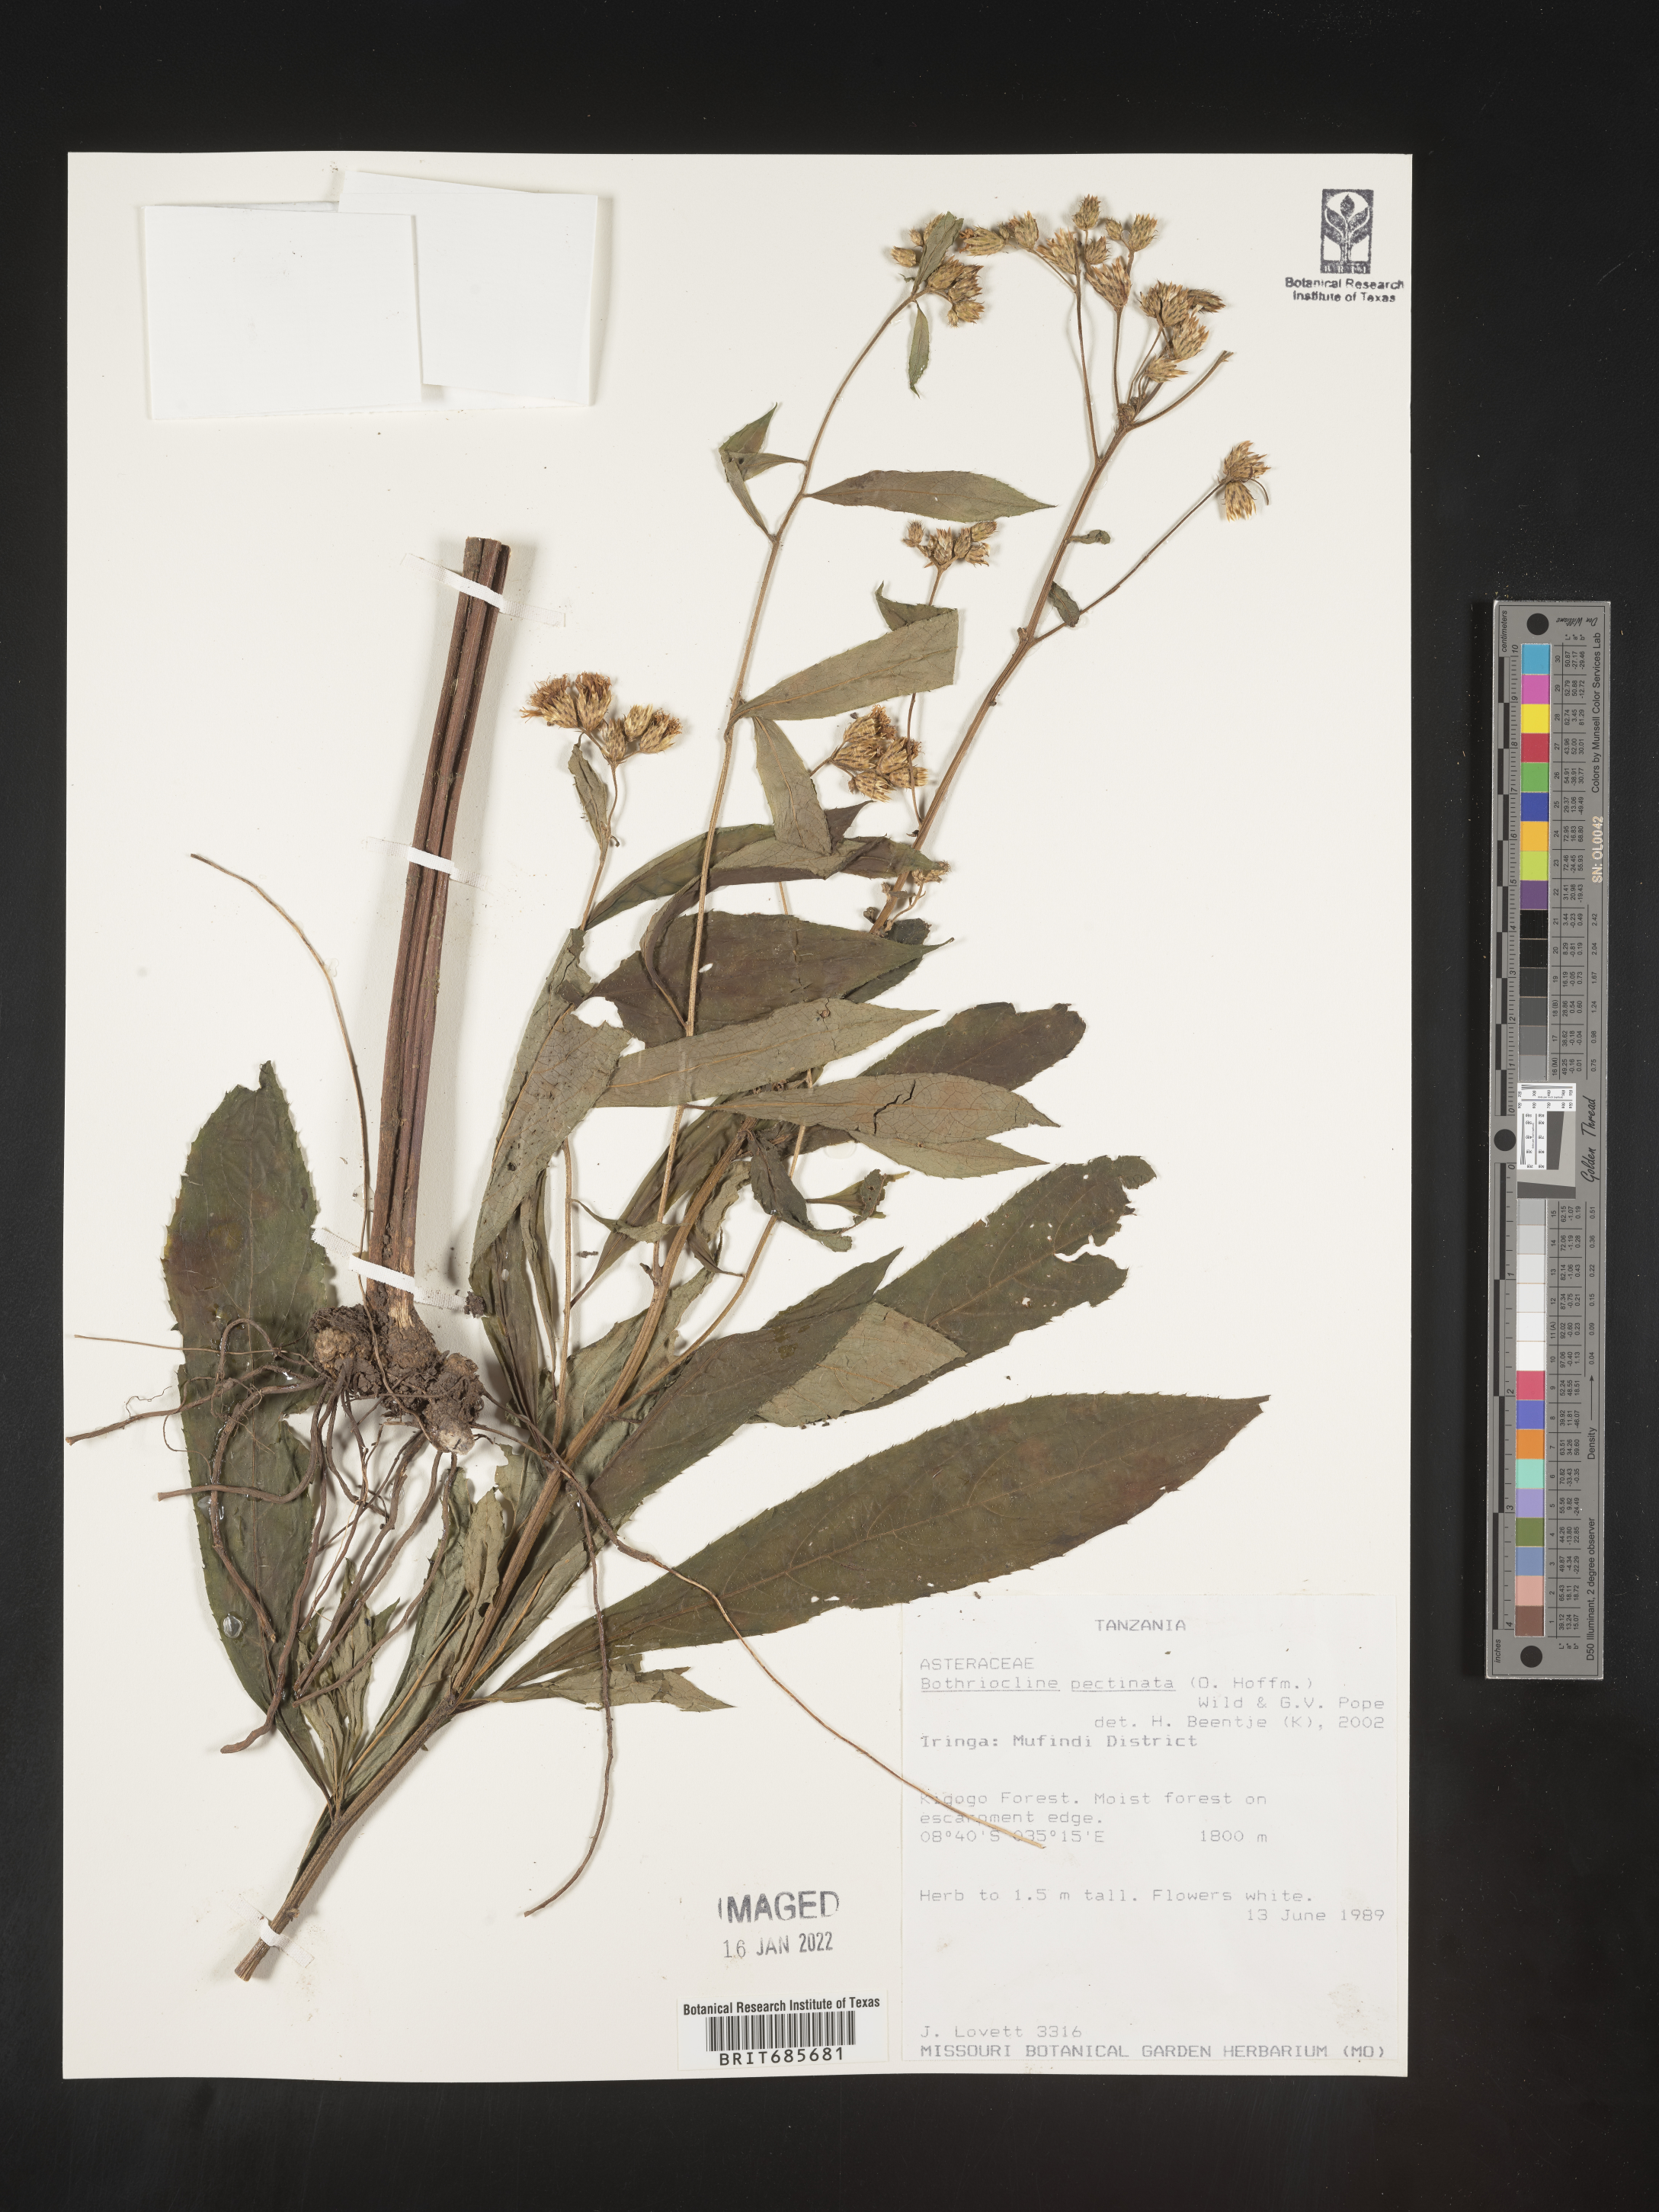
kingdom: Plantae
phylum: Tracheophyta
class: Magnoliopsida
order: Asterales
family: Asteraceae
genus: Bothriocline
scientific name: Bothriocline
